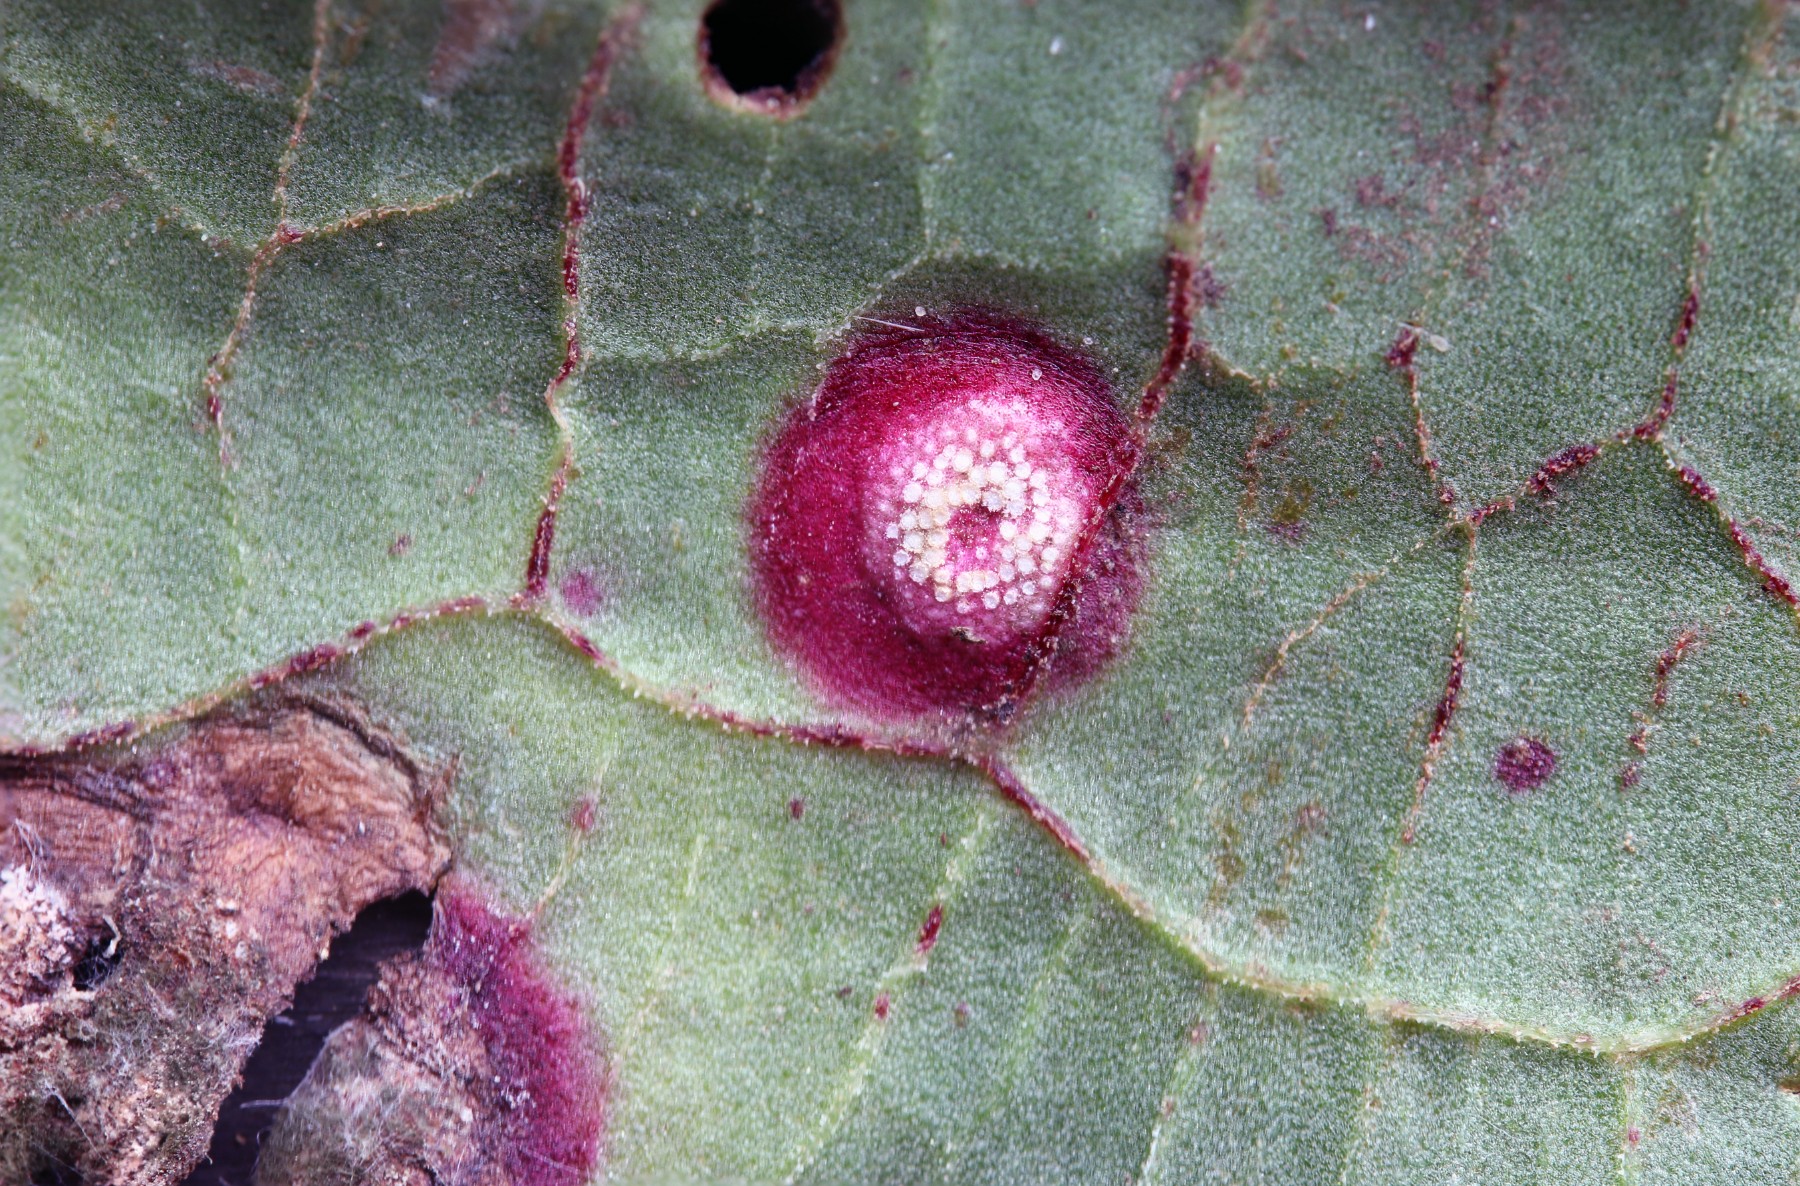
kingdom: Fungi
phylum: Basidiomycota
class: Pucciniomycetes
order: Pucciniales
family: Pucciniaceae
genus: Puccinia
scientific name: Puccinia phragmitis
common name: tagrør-tvecellerust
